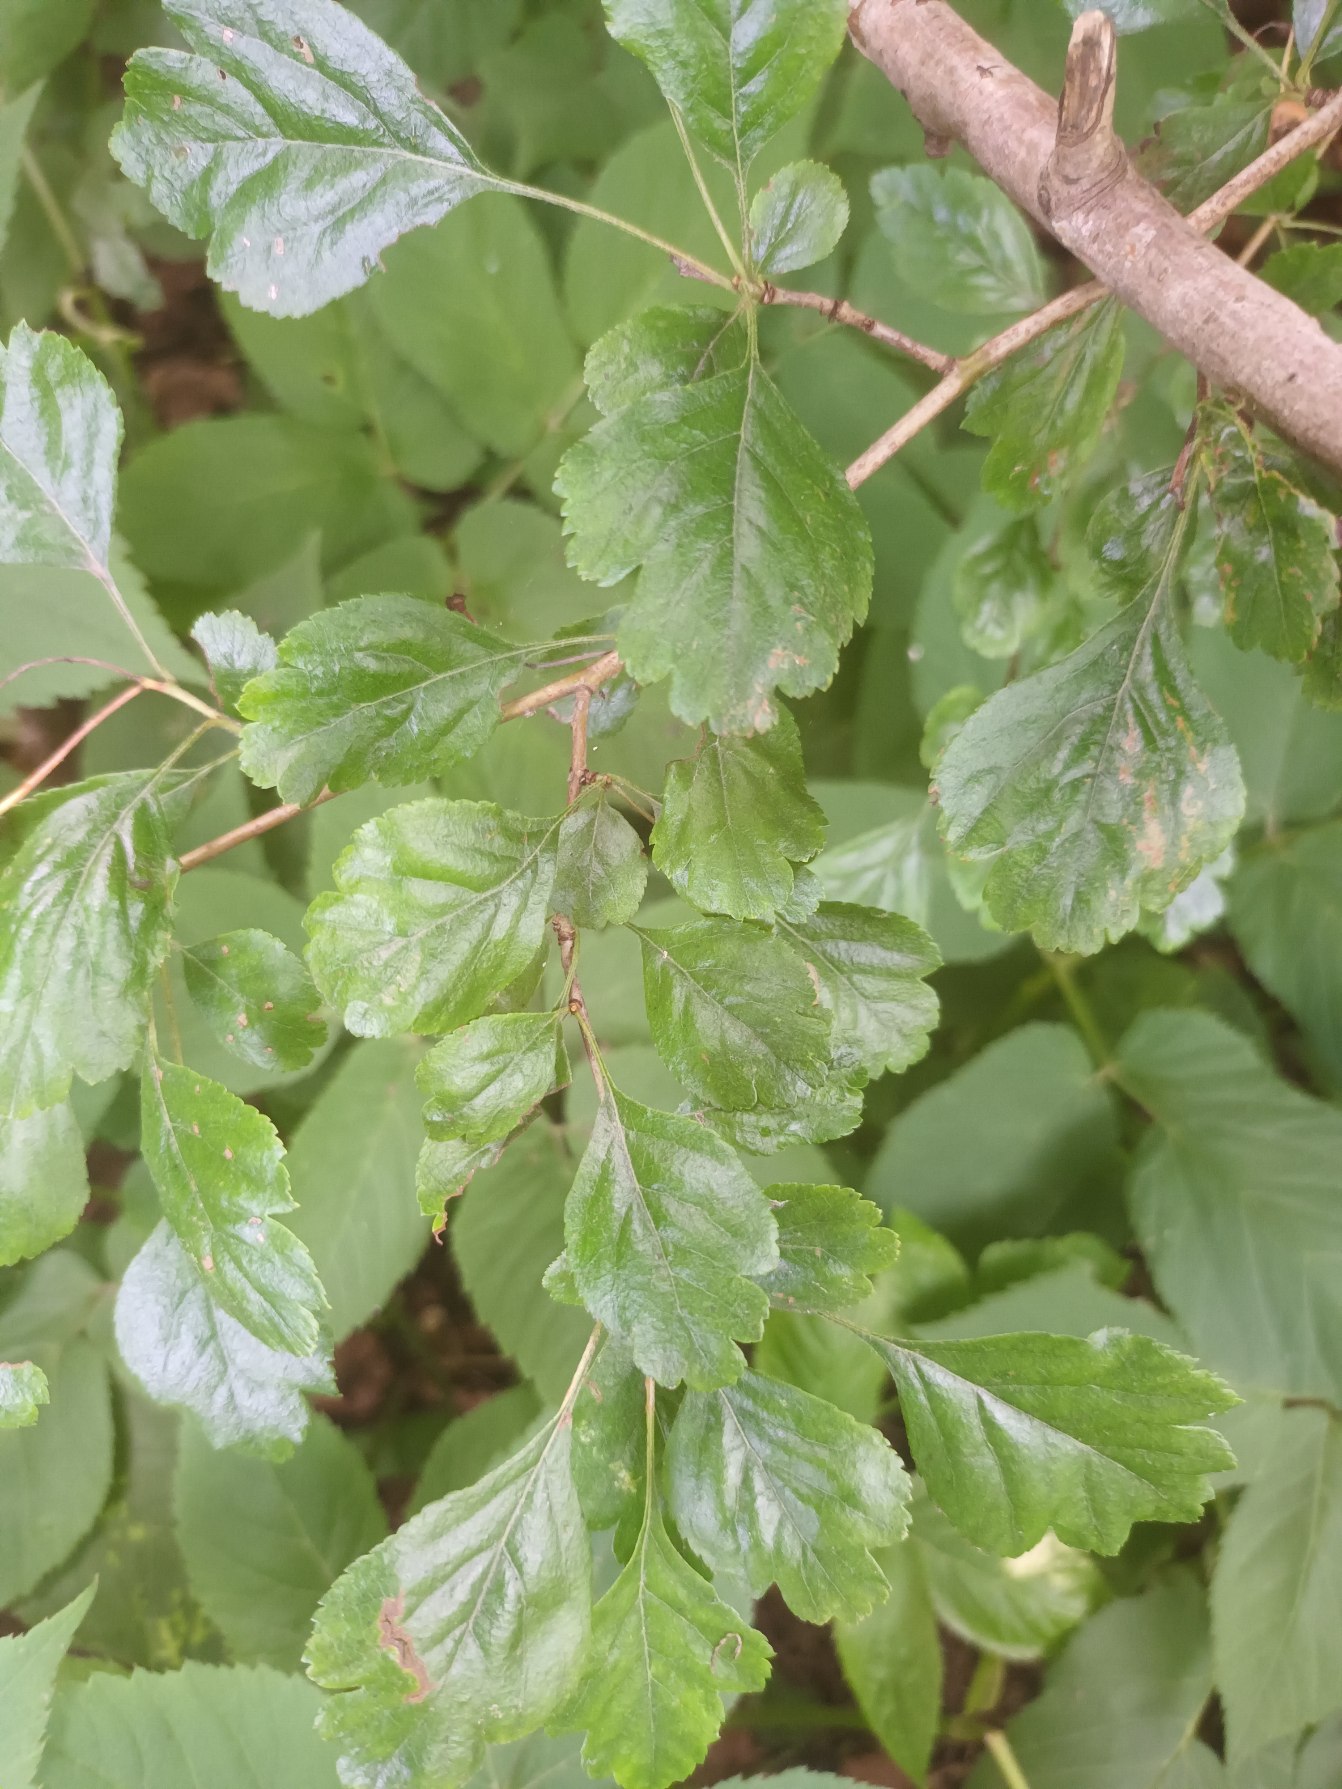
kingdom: Plantae
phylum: Tracheophyta
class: Magnoliopsida
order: Rosales
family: Rosaceae
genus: Crataegus
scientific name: Crataegus laevigata
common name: Almindelig hvidtjørn
